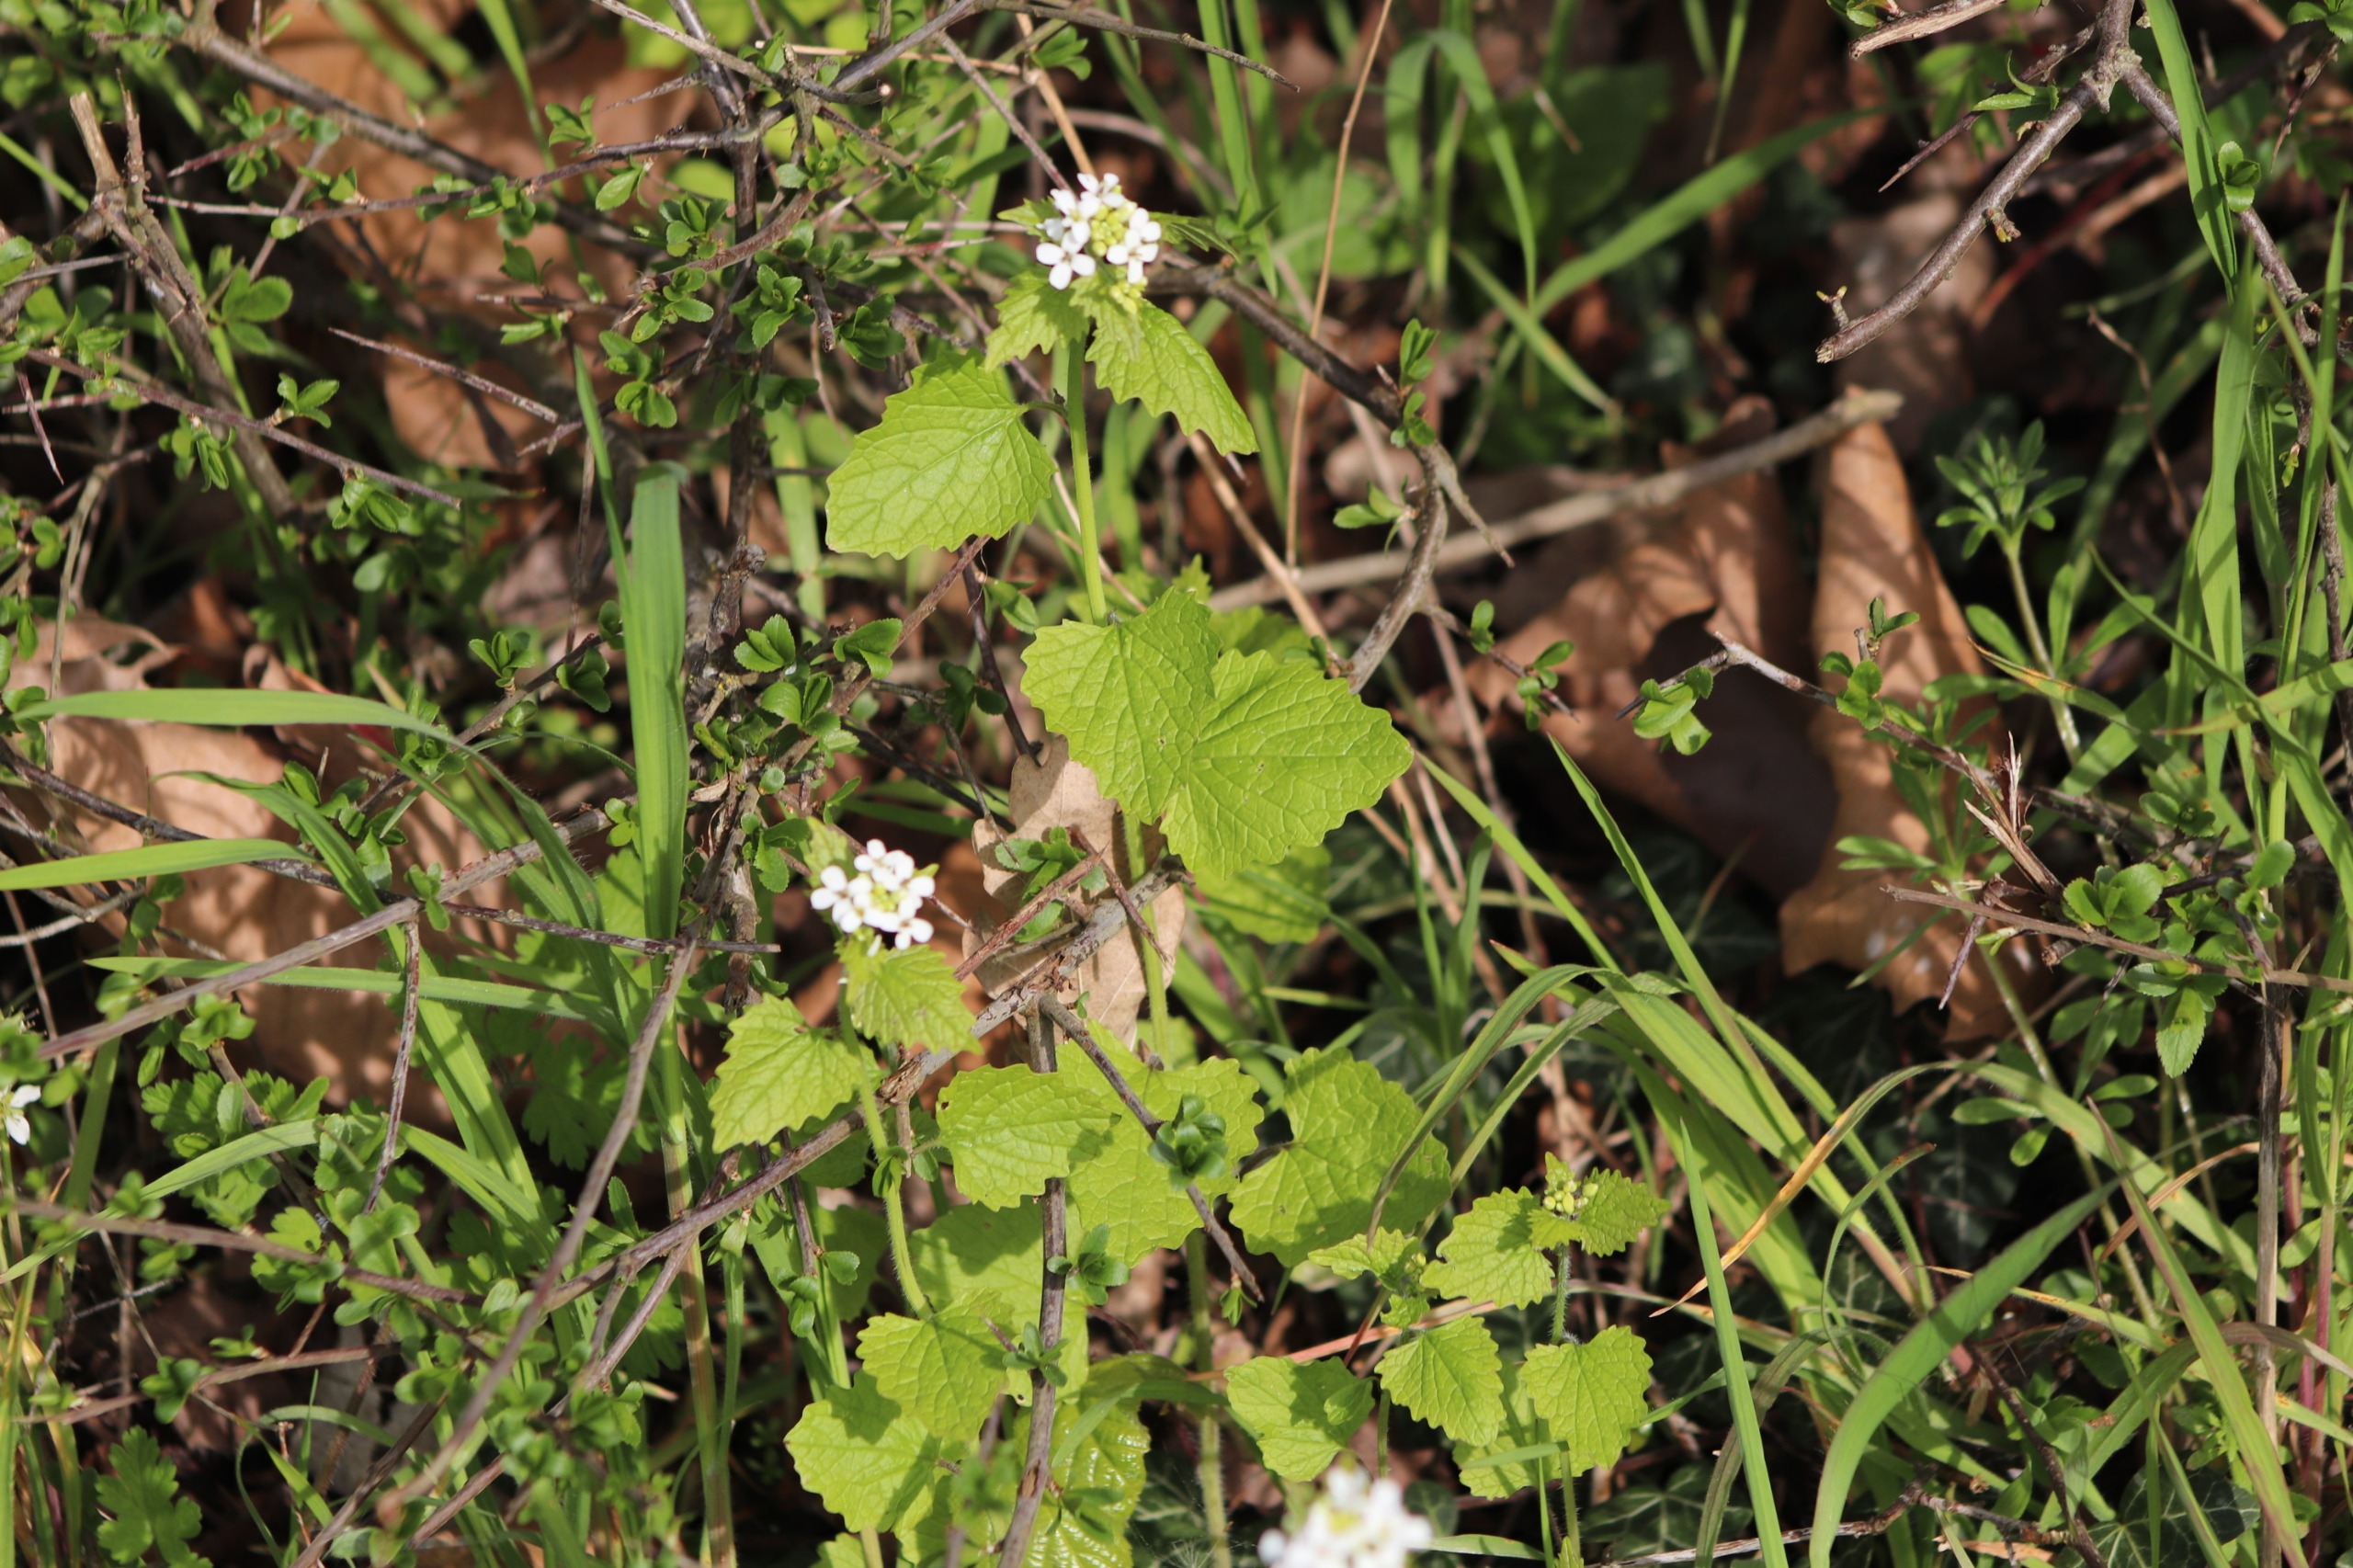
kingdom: Plantae
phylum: Tracheophyta
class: Magnoliopsida
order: Brassicales
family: Brassicaceae
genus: Alliaria
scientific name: Alliaria petiolata
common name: Løgkarse
